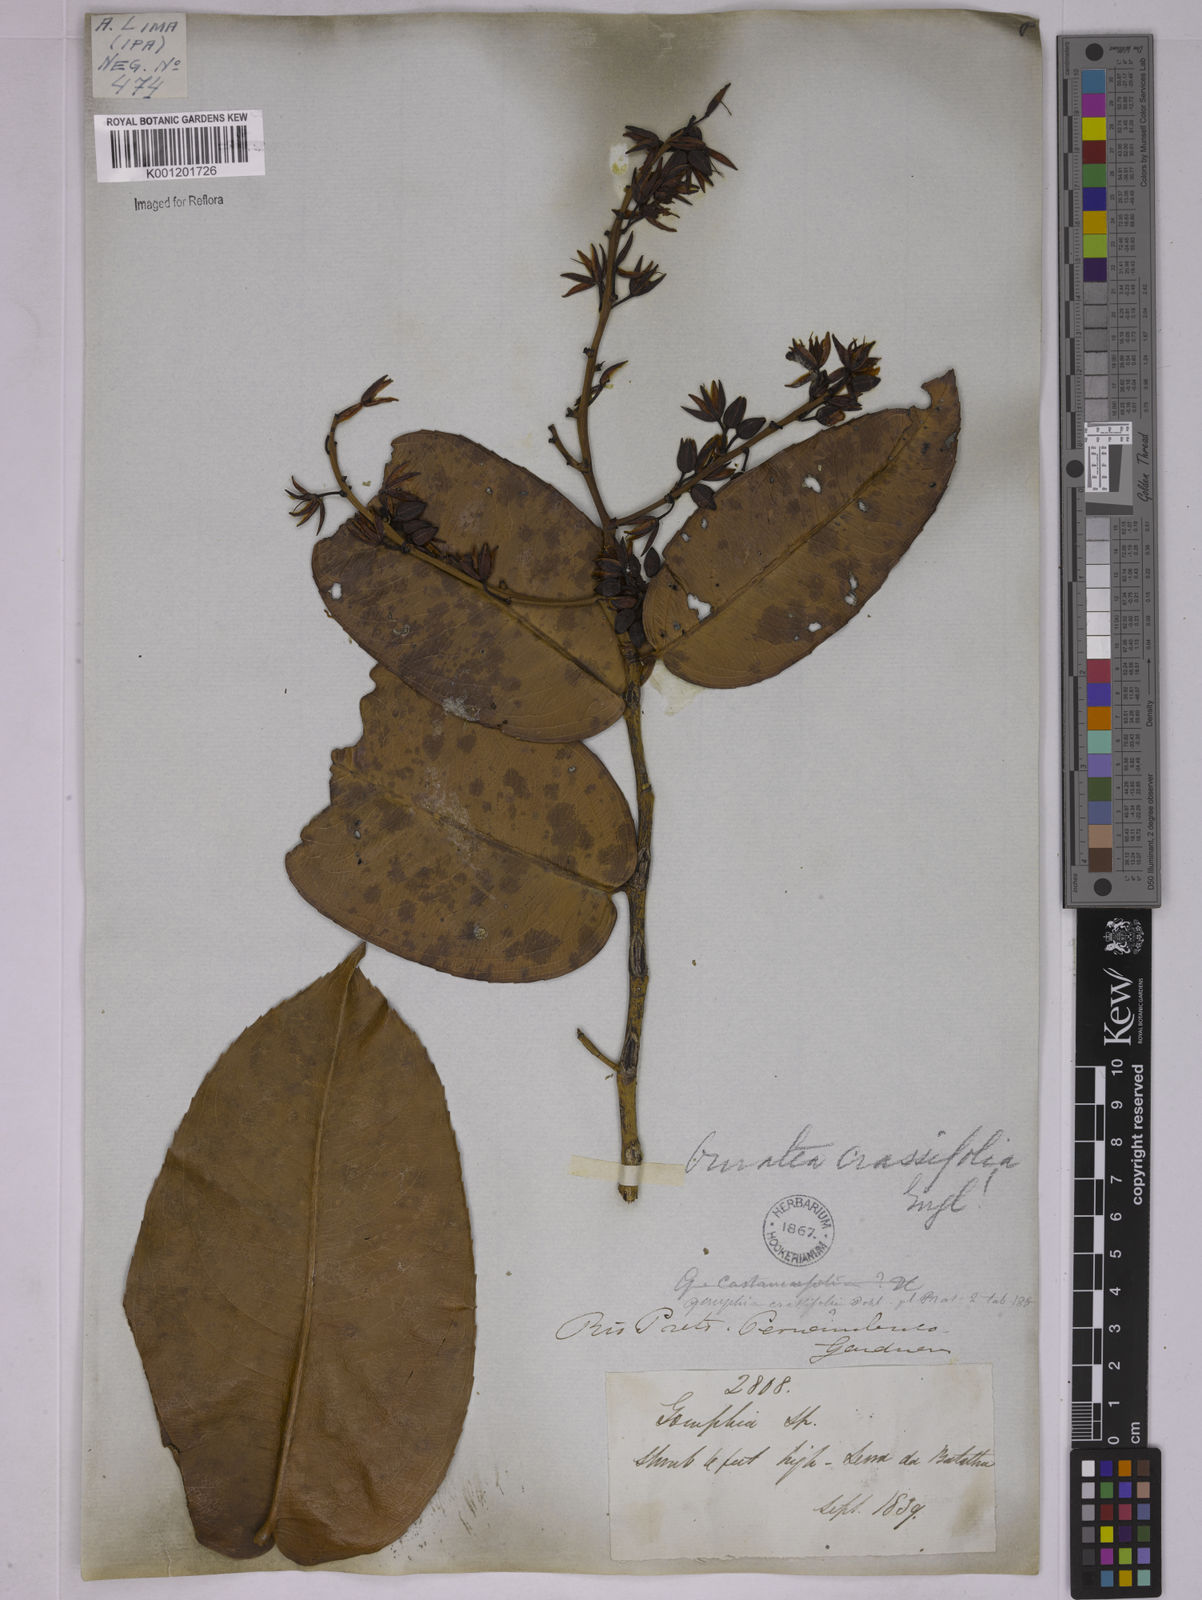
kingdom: Plantae
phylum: Tracheophyta
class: Magnoliopsida
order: Malpighiales
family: Ochnaceae
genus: Ouratea
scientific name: Ouratea crassifolia
